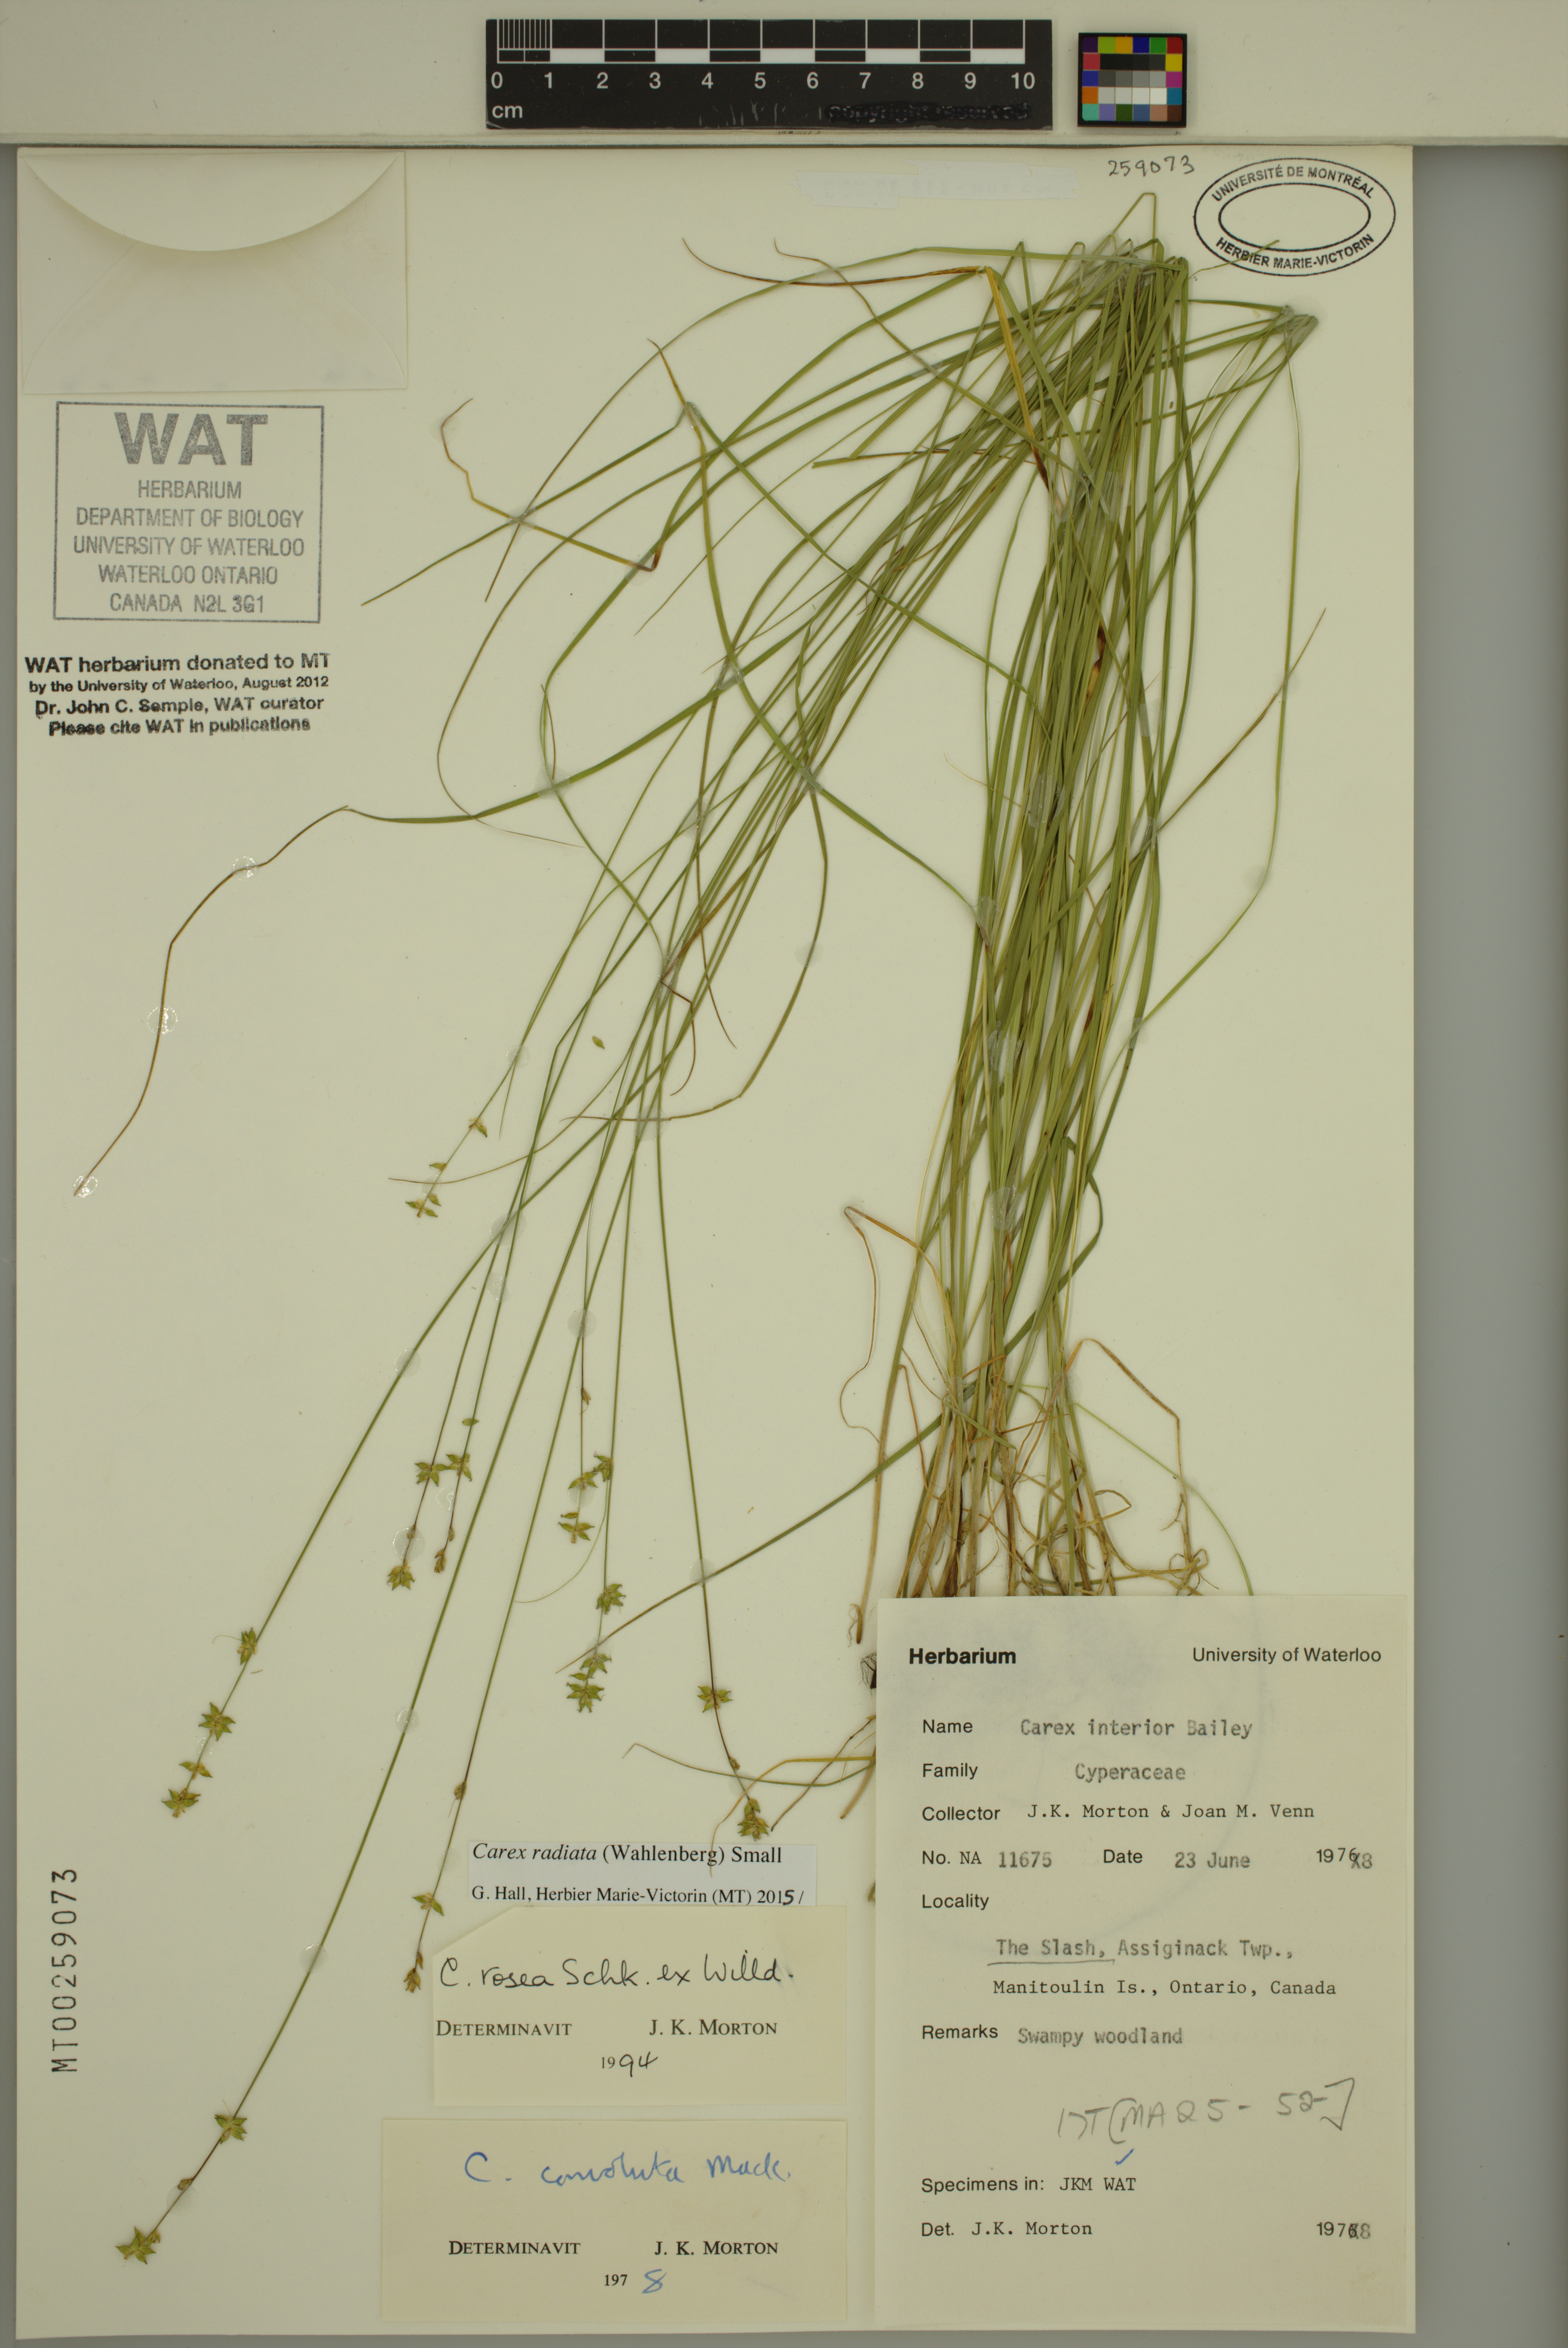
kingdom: Plantae
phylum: Tracheophyta
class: Liliopsida
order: Poales
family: Cyperaceae
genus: Carex
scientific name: Carex radiata
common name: Eastern star sedge
